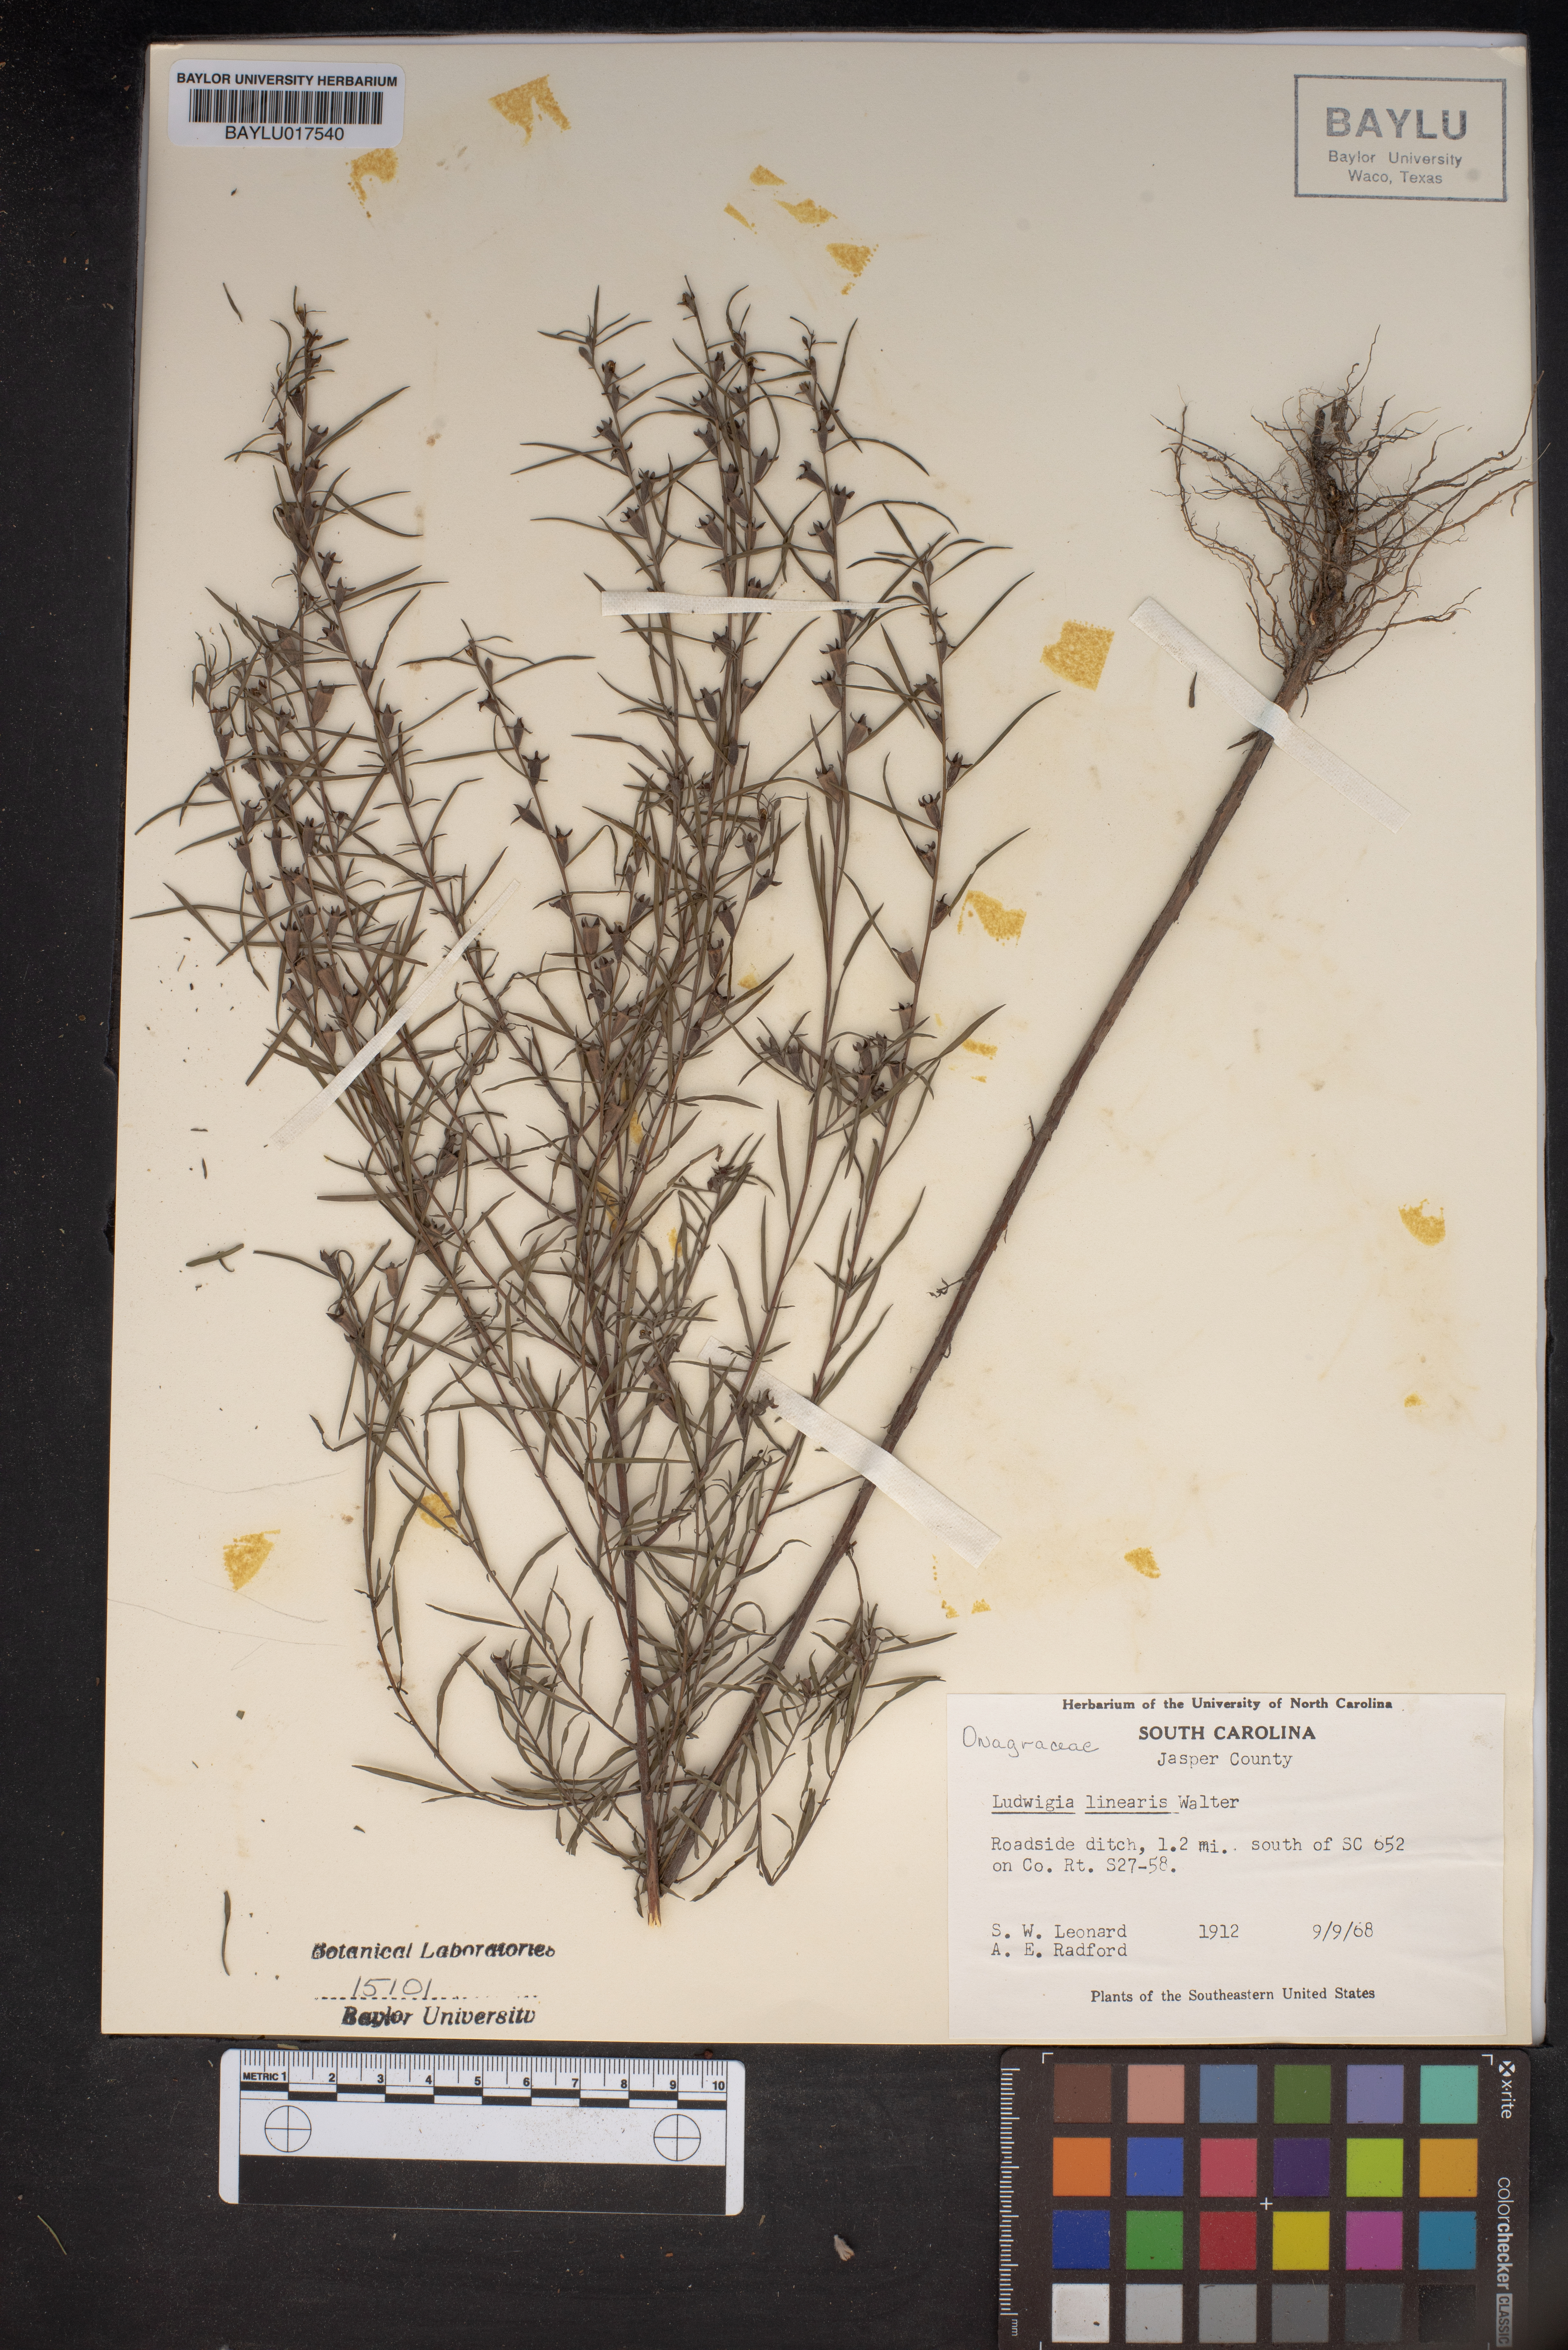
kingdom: Plantae
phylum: Tracheophyta
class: Magnoliopsida
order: Myrtales
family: Onagraceae
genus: Ludwigia
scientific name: Ludwigia linearis
